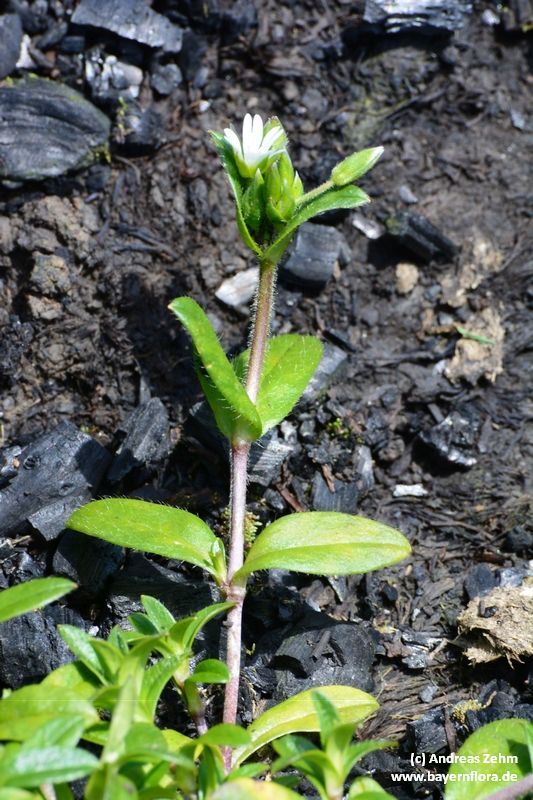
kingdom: Plantae
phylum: Tracheophyta
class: Magnoliopsida
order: Caryophyllales
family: Caryophyllaceae
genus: Cerastium
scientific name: Cerastium holosteoides
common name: Big chickweed
